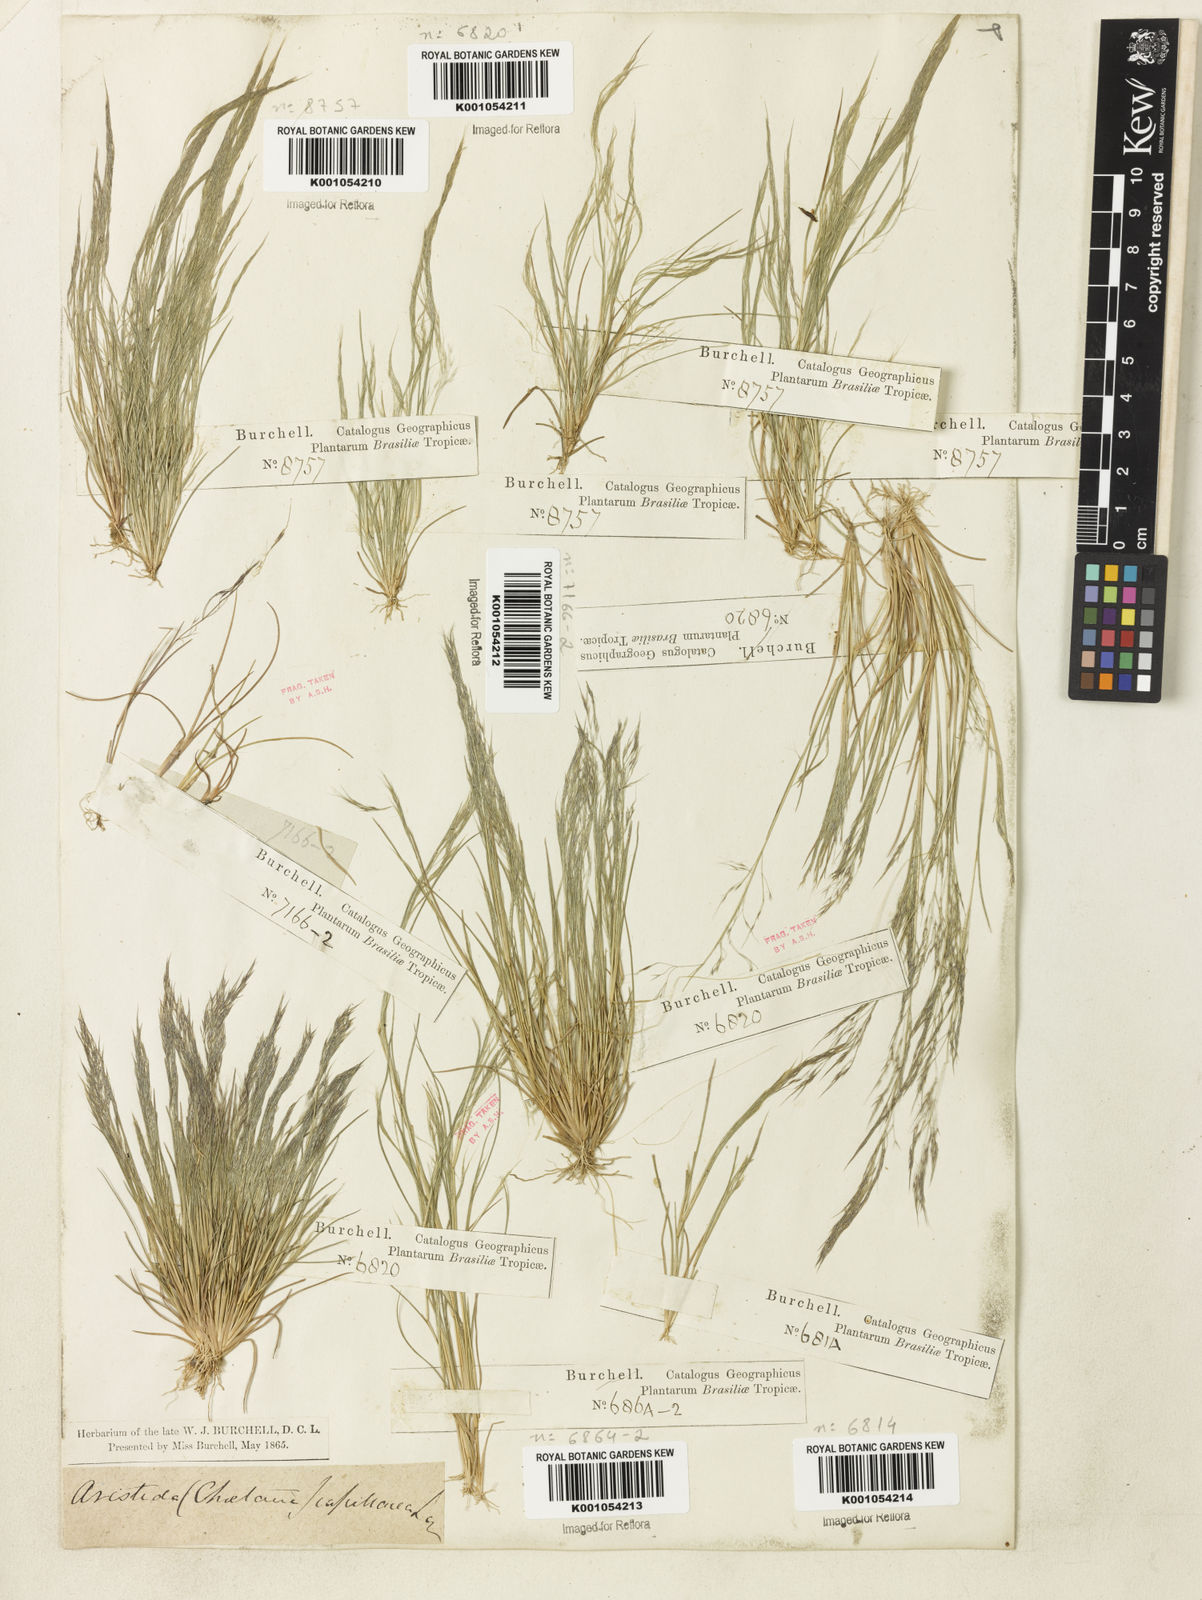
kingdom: Plantae
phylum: Tracheophyta
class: Liliopsida
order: Poales
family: Poaceae
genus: Aristida
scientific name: Aristida capillacea
